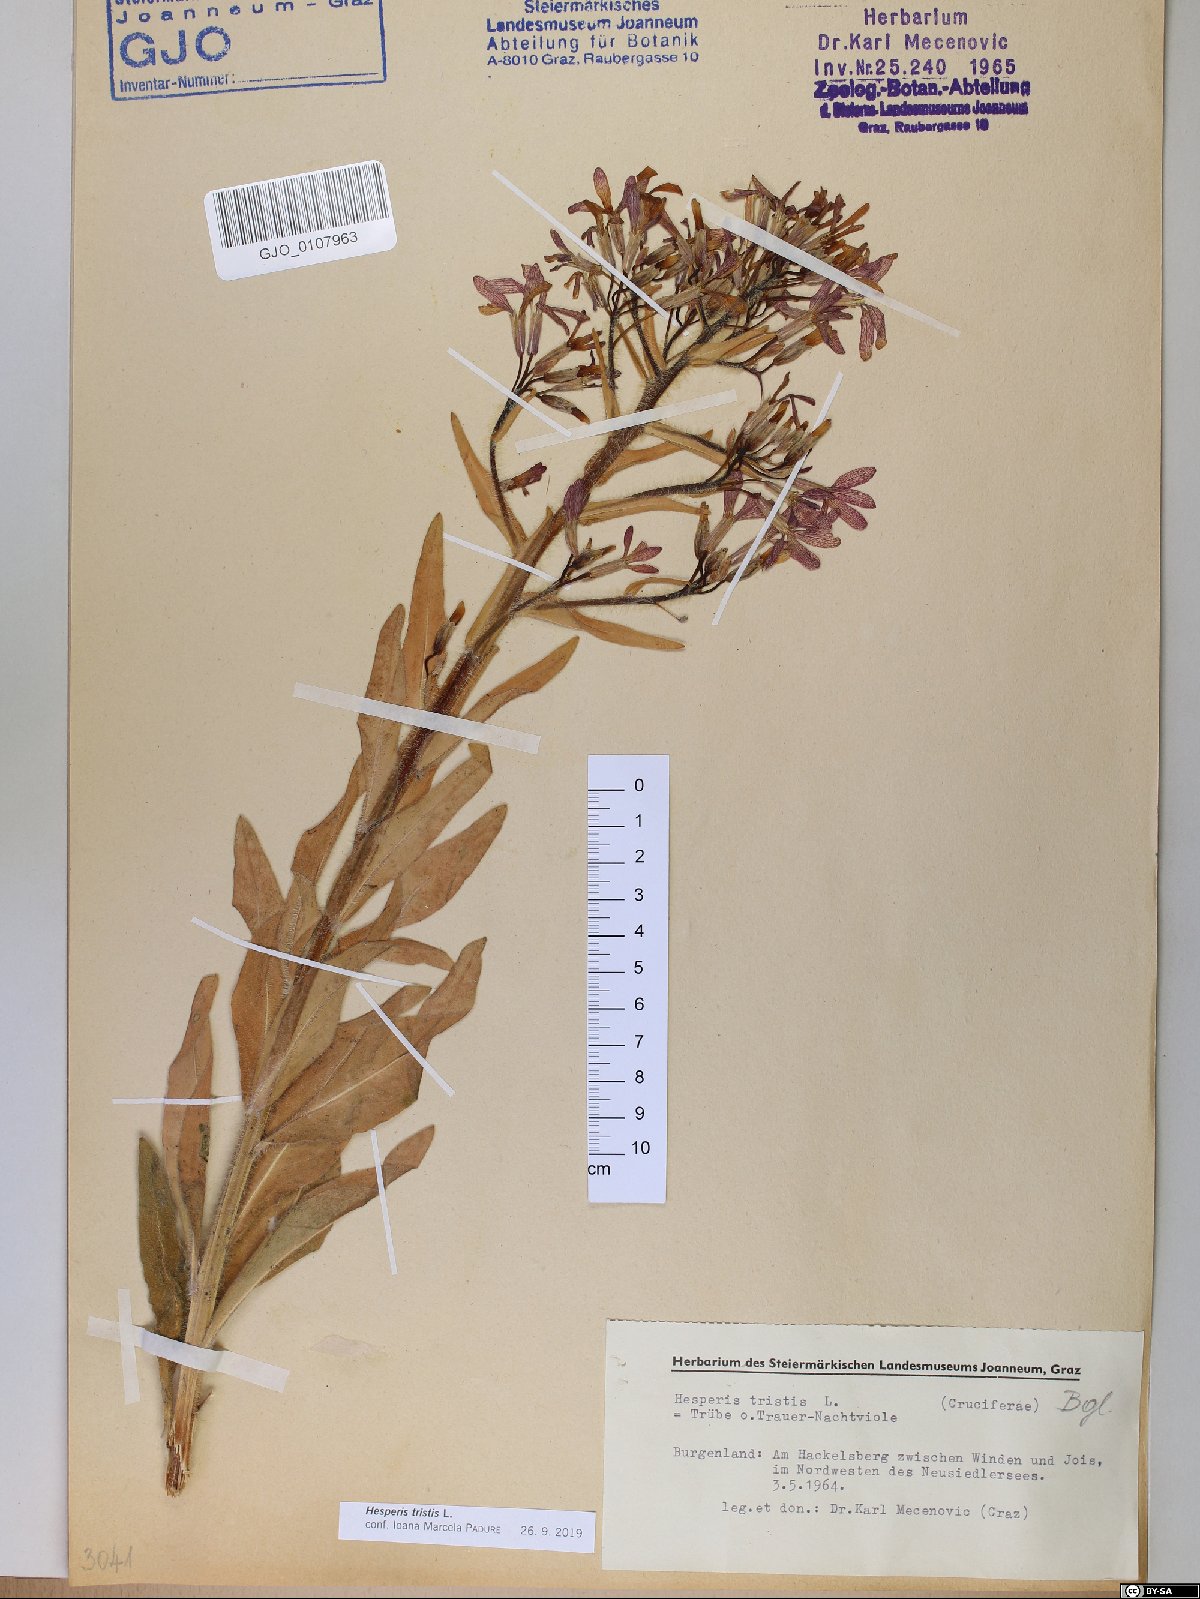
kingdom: Plantae
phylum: Tracheophyta
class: Magnoliopsida
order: Brassicales
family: Brassicaceae
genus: Hesperis
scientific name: Hesperis tristis
